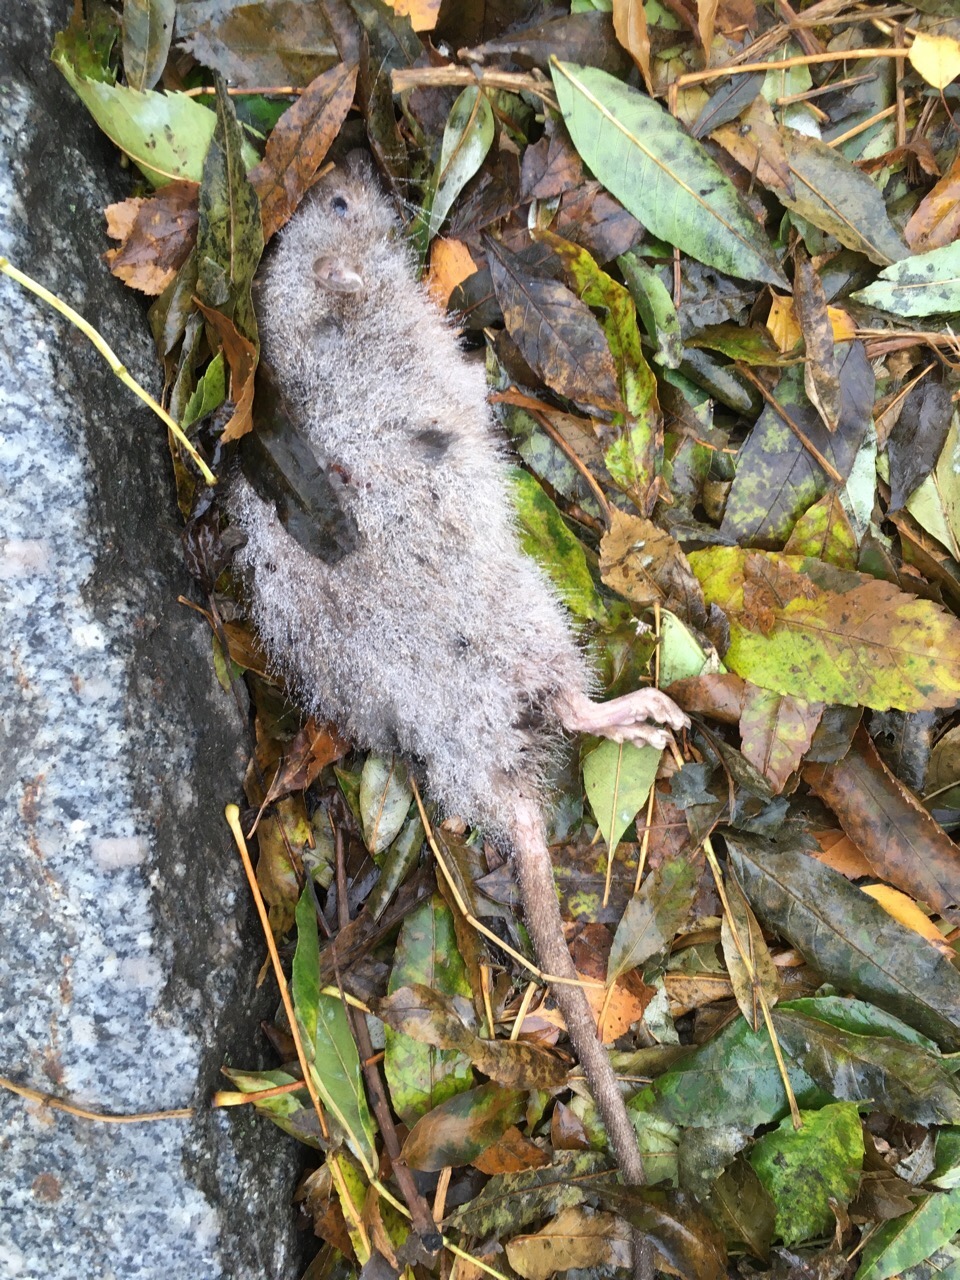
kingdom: Animalia
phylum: Chordata
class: Mammalia
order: Rodentia
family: Muridae
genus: Rattus
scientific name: Rattus
